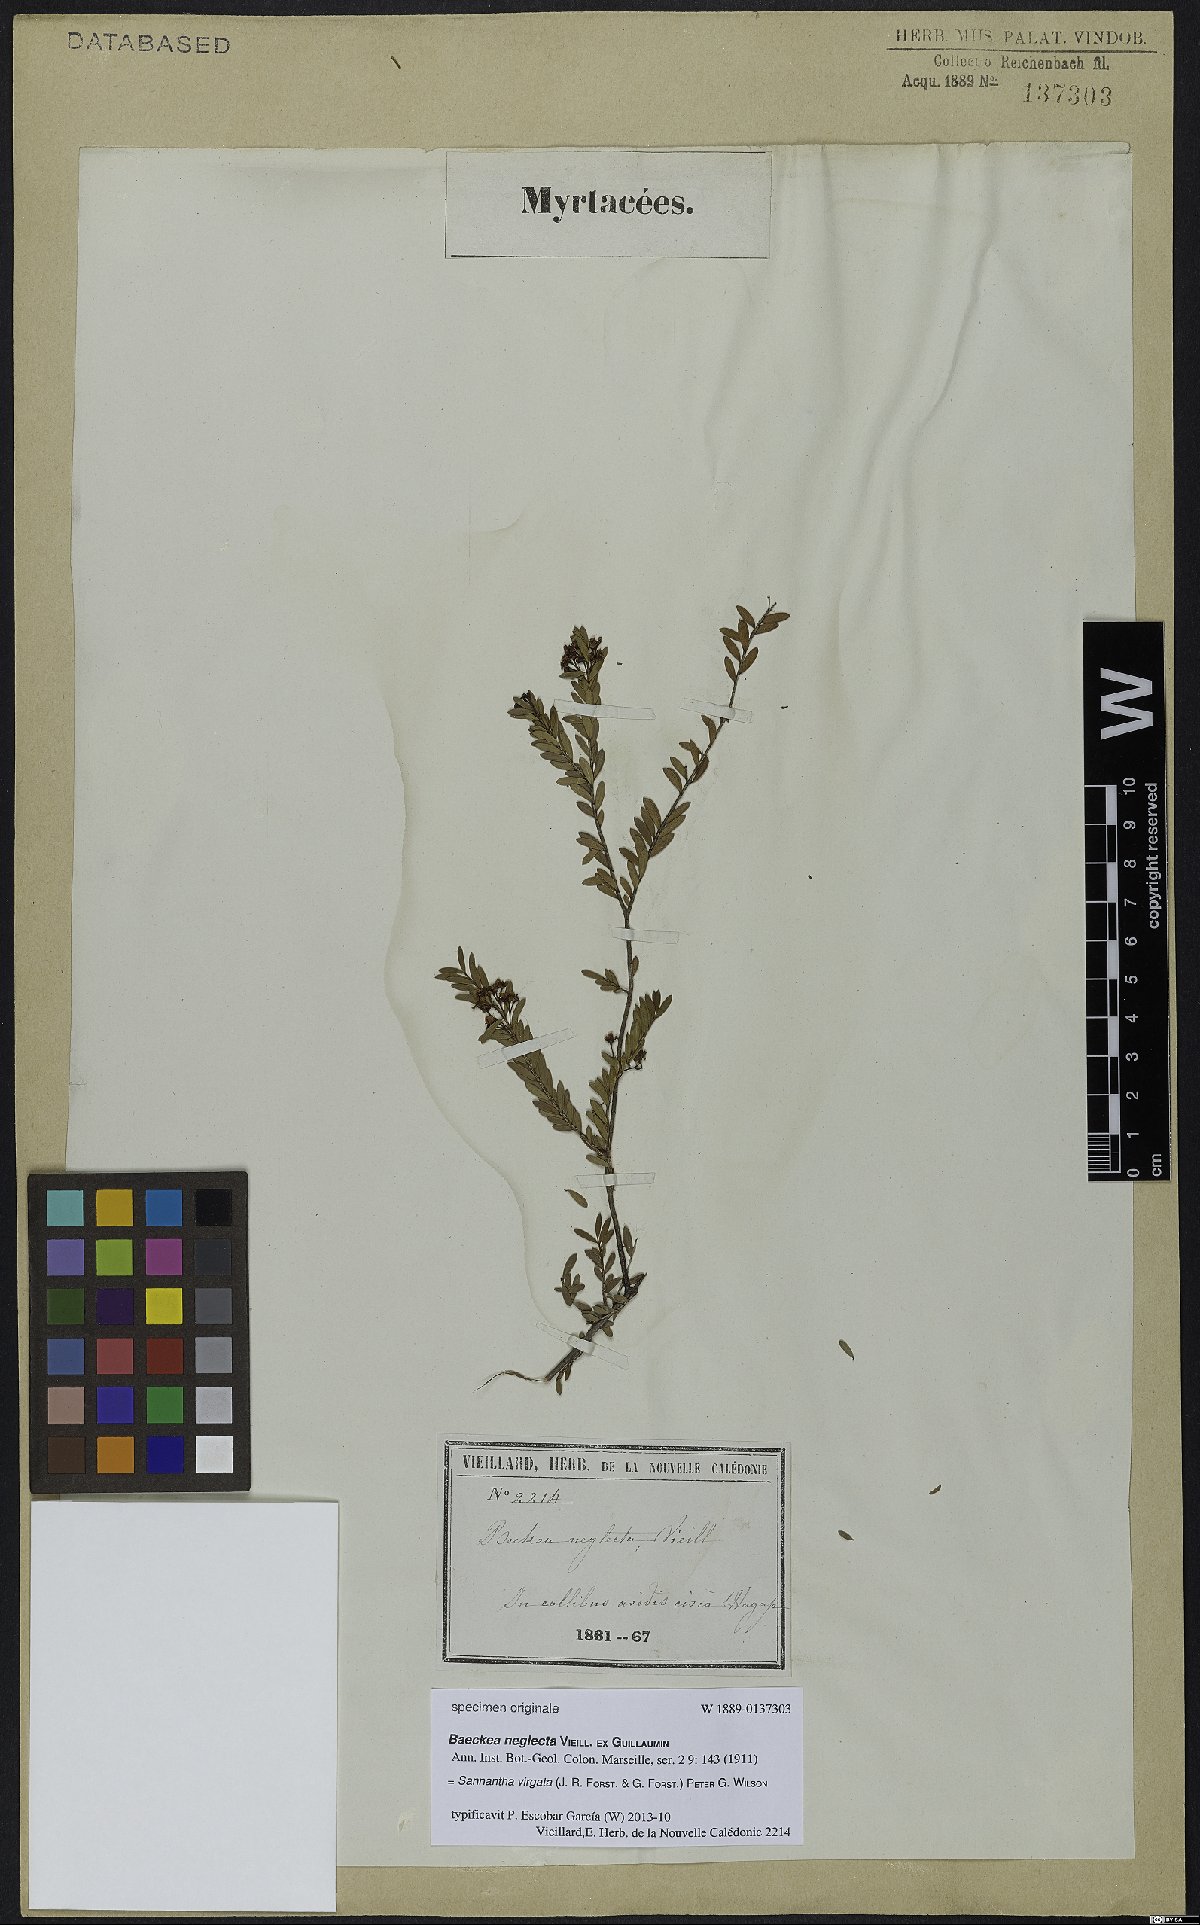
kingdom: Plantae
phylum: Tracheophyta
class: Magnoliopsida
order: Myrtales
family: Myrtaceae
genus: Sannantha
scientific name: Sannantha virgata
